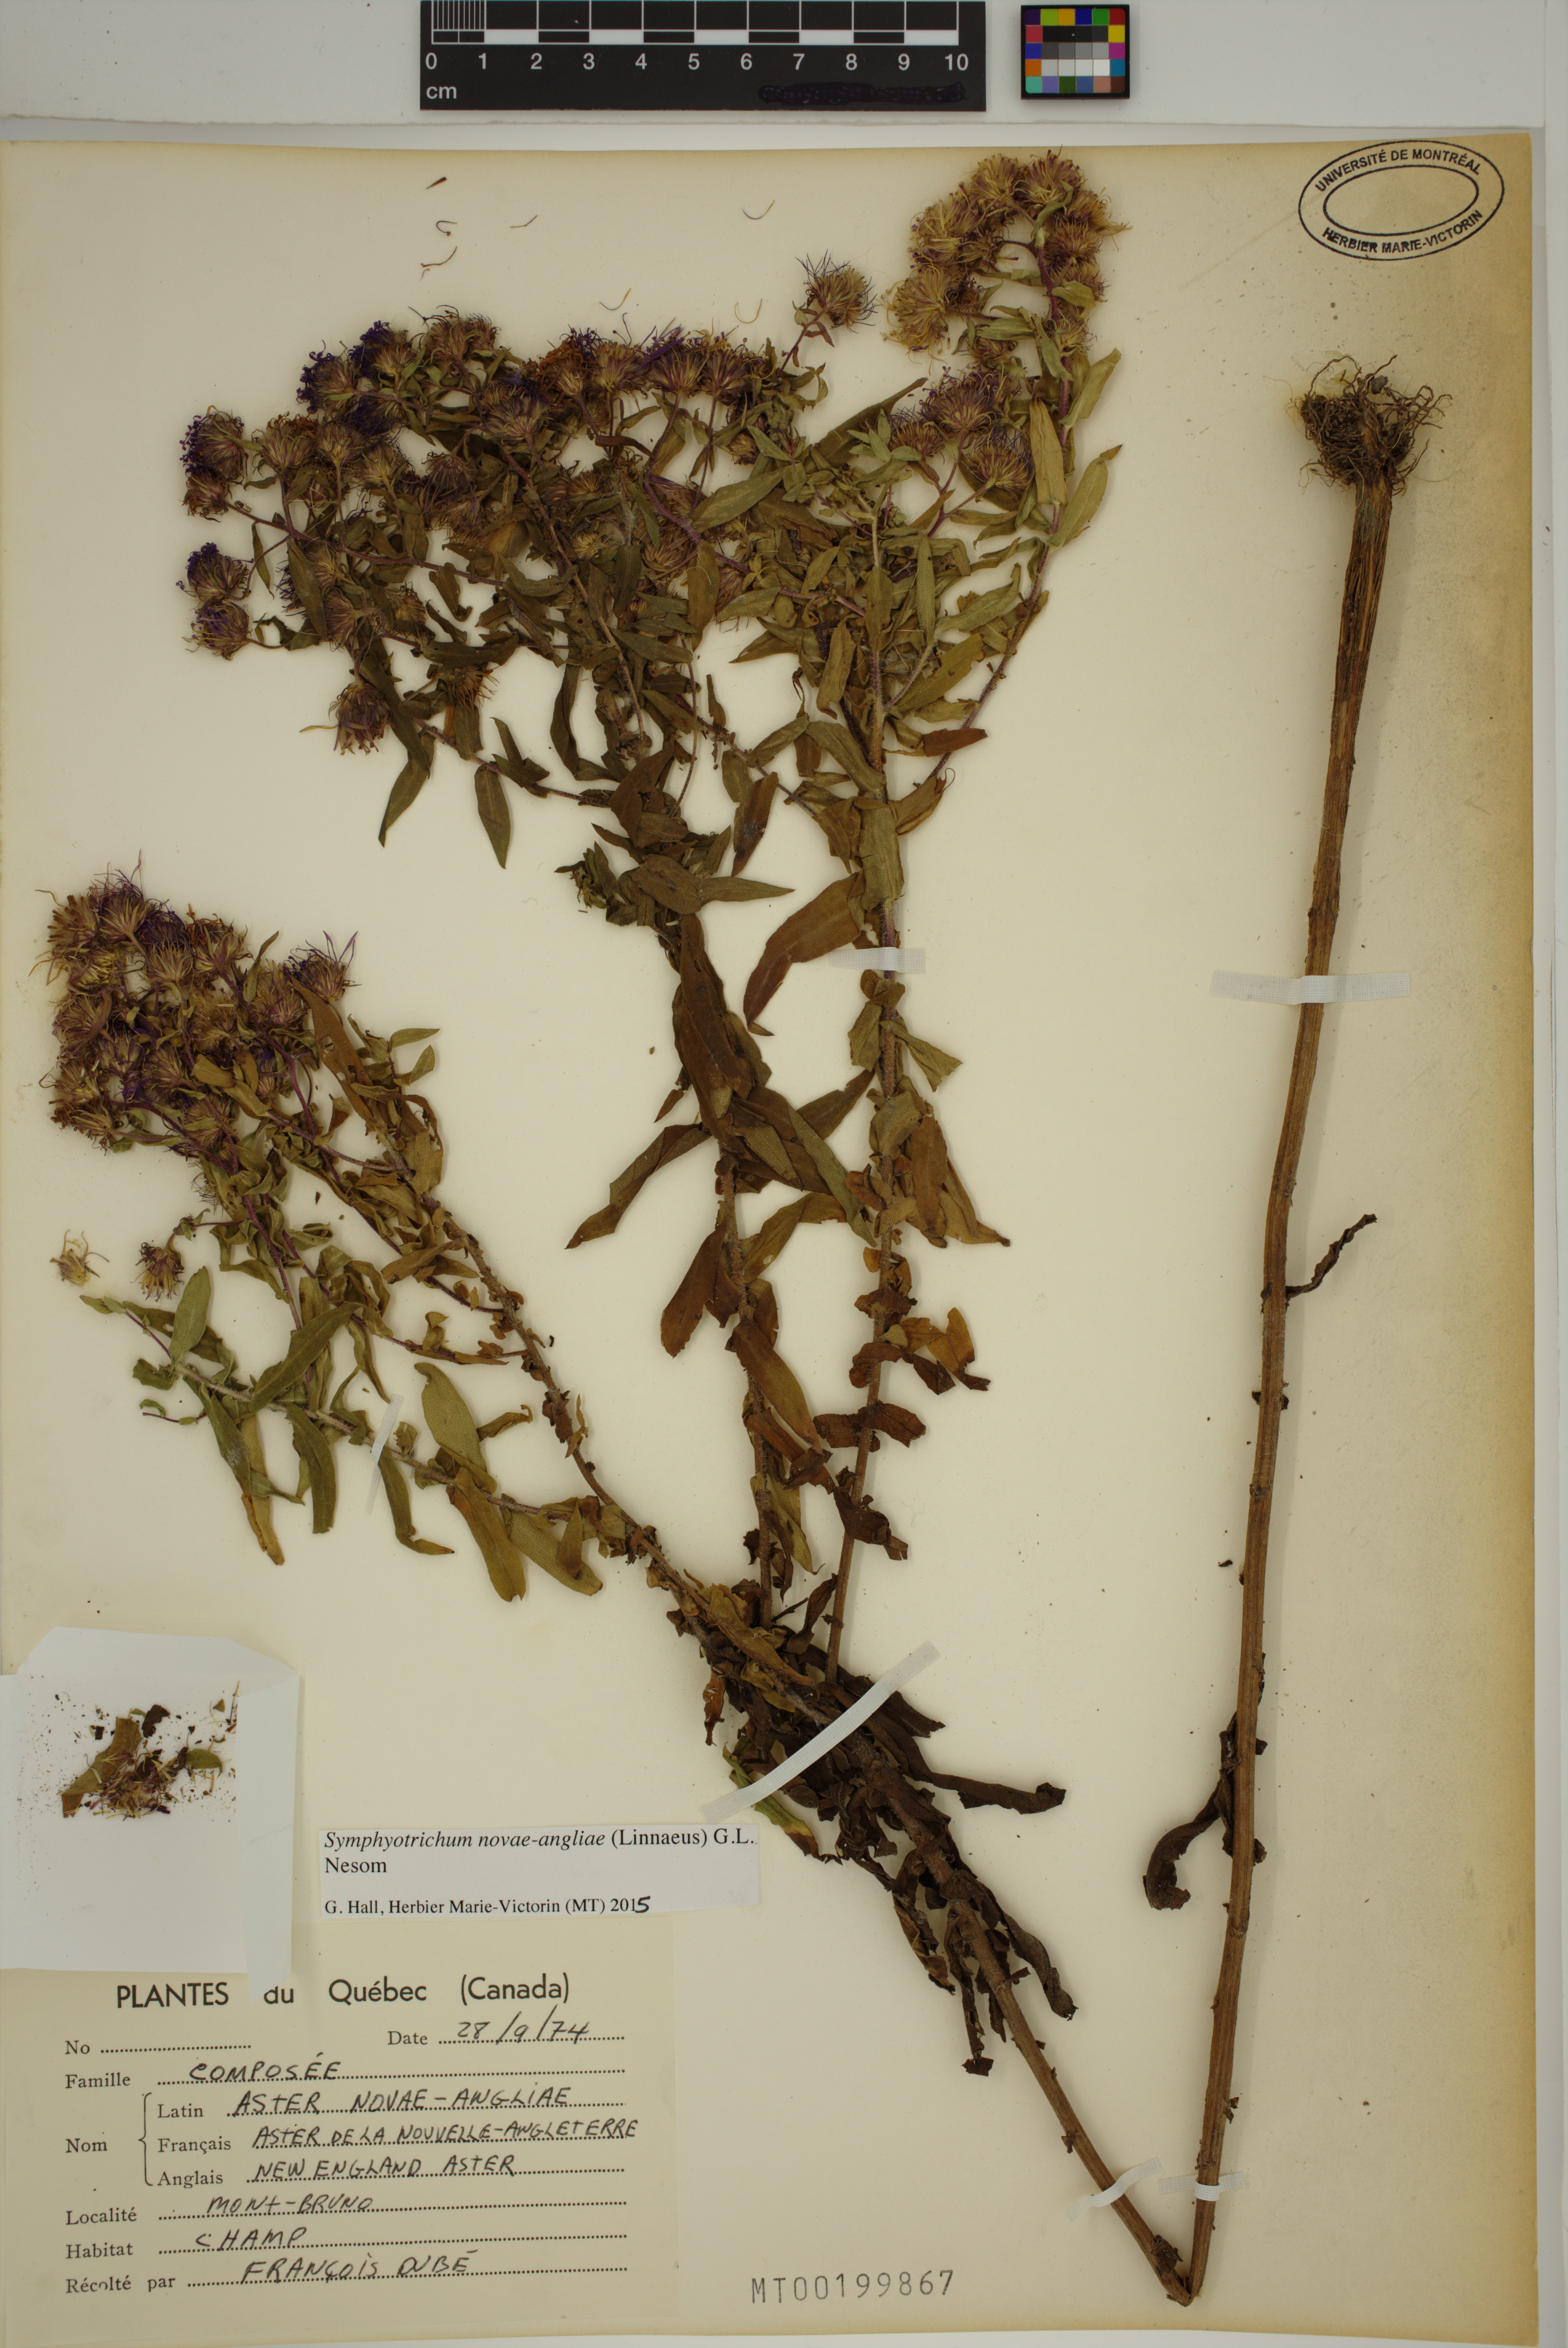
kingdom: Plantae
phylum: Tracheophyta
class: Magnoliopsida
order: Asterales
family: Asteraceae
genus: Symphyotrichum
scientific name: Symphyotrichum novae-angliae
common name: Michaelmas daisy
